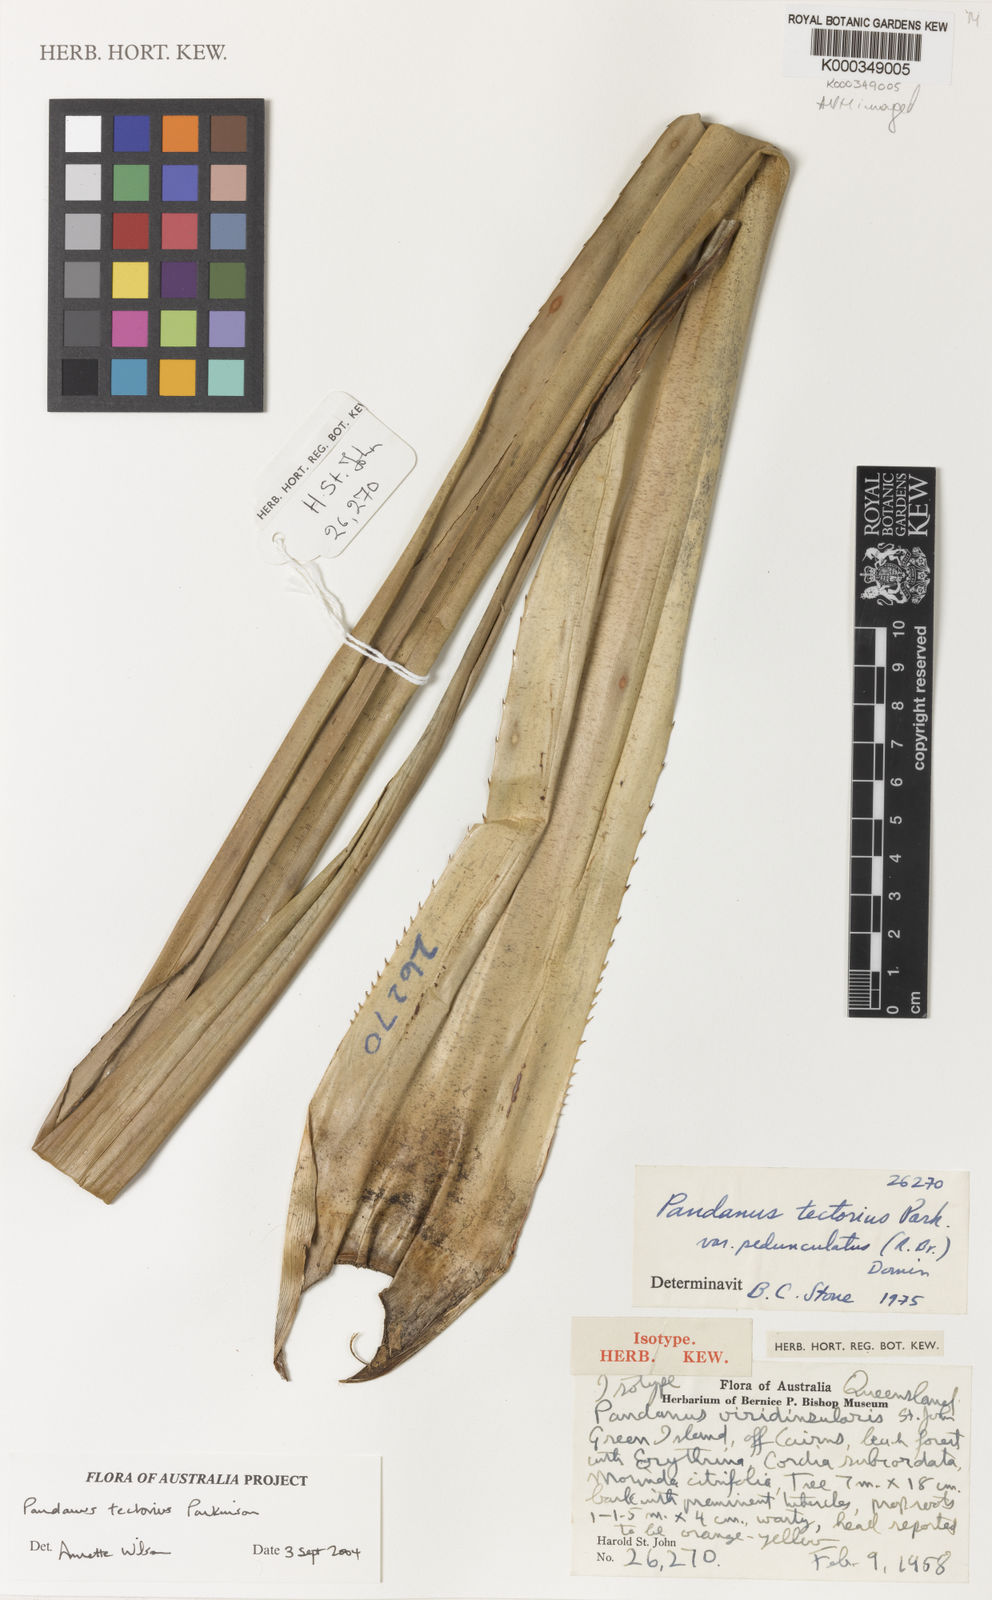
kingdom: Plantae
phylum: Tracheophyta
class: Liliopsida
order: Pandanales
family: Pandanaceae
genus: Pandanus
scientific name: Pandanus
